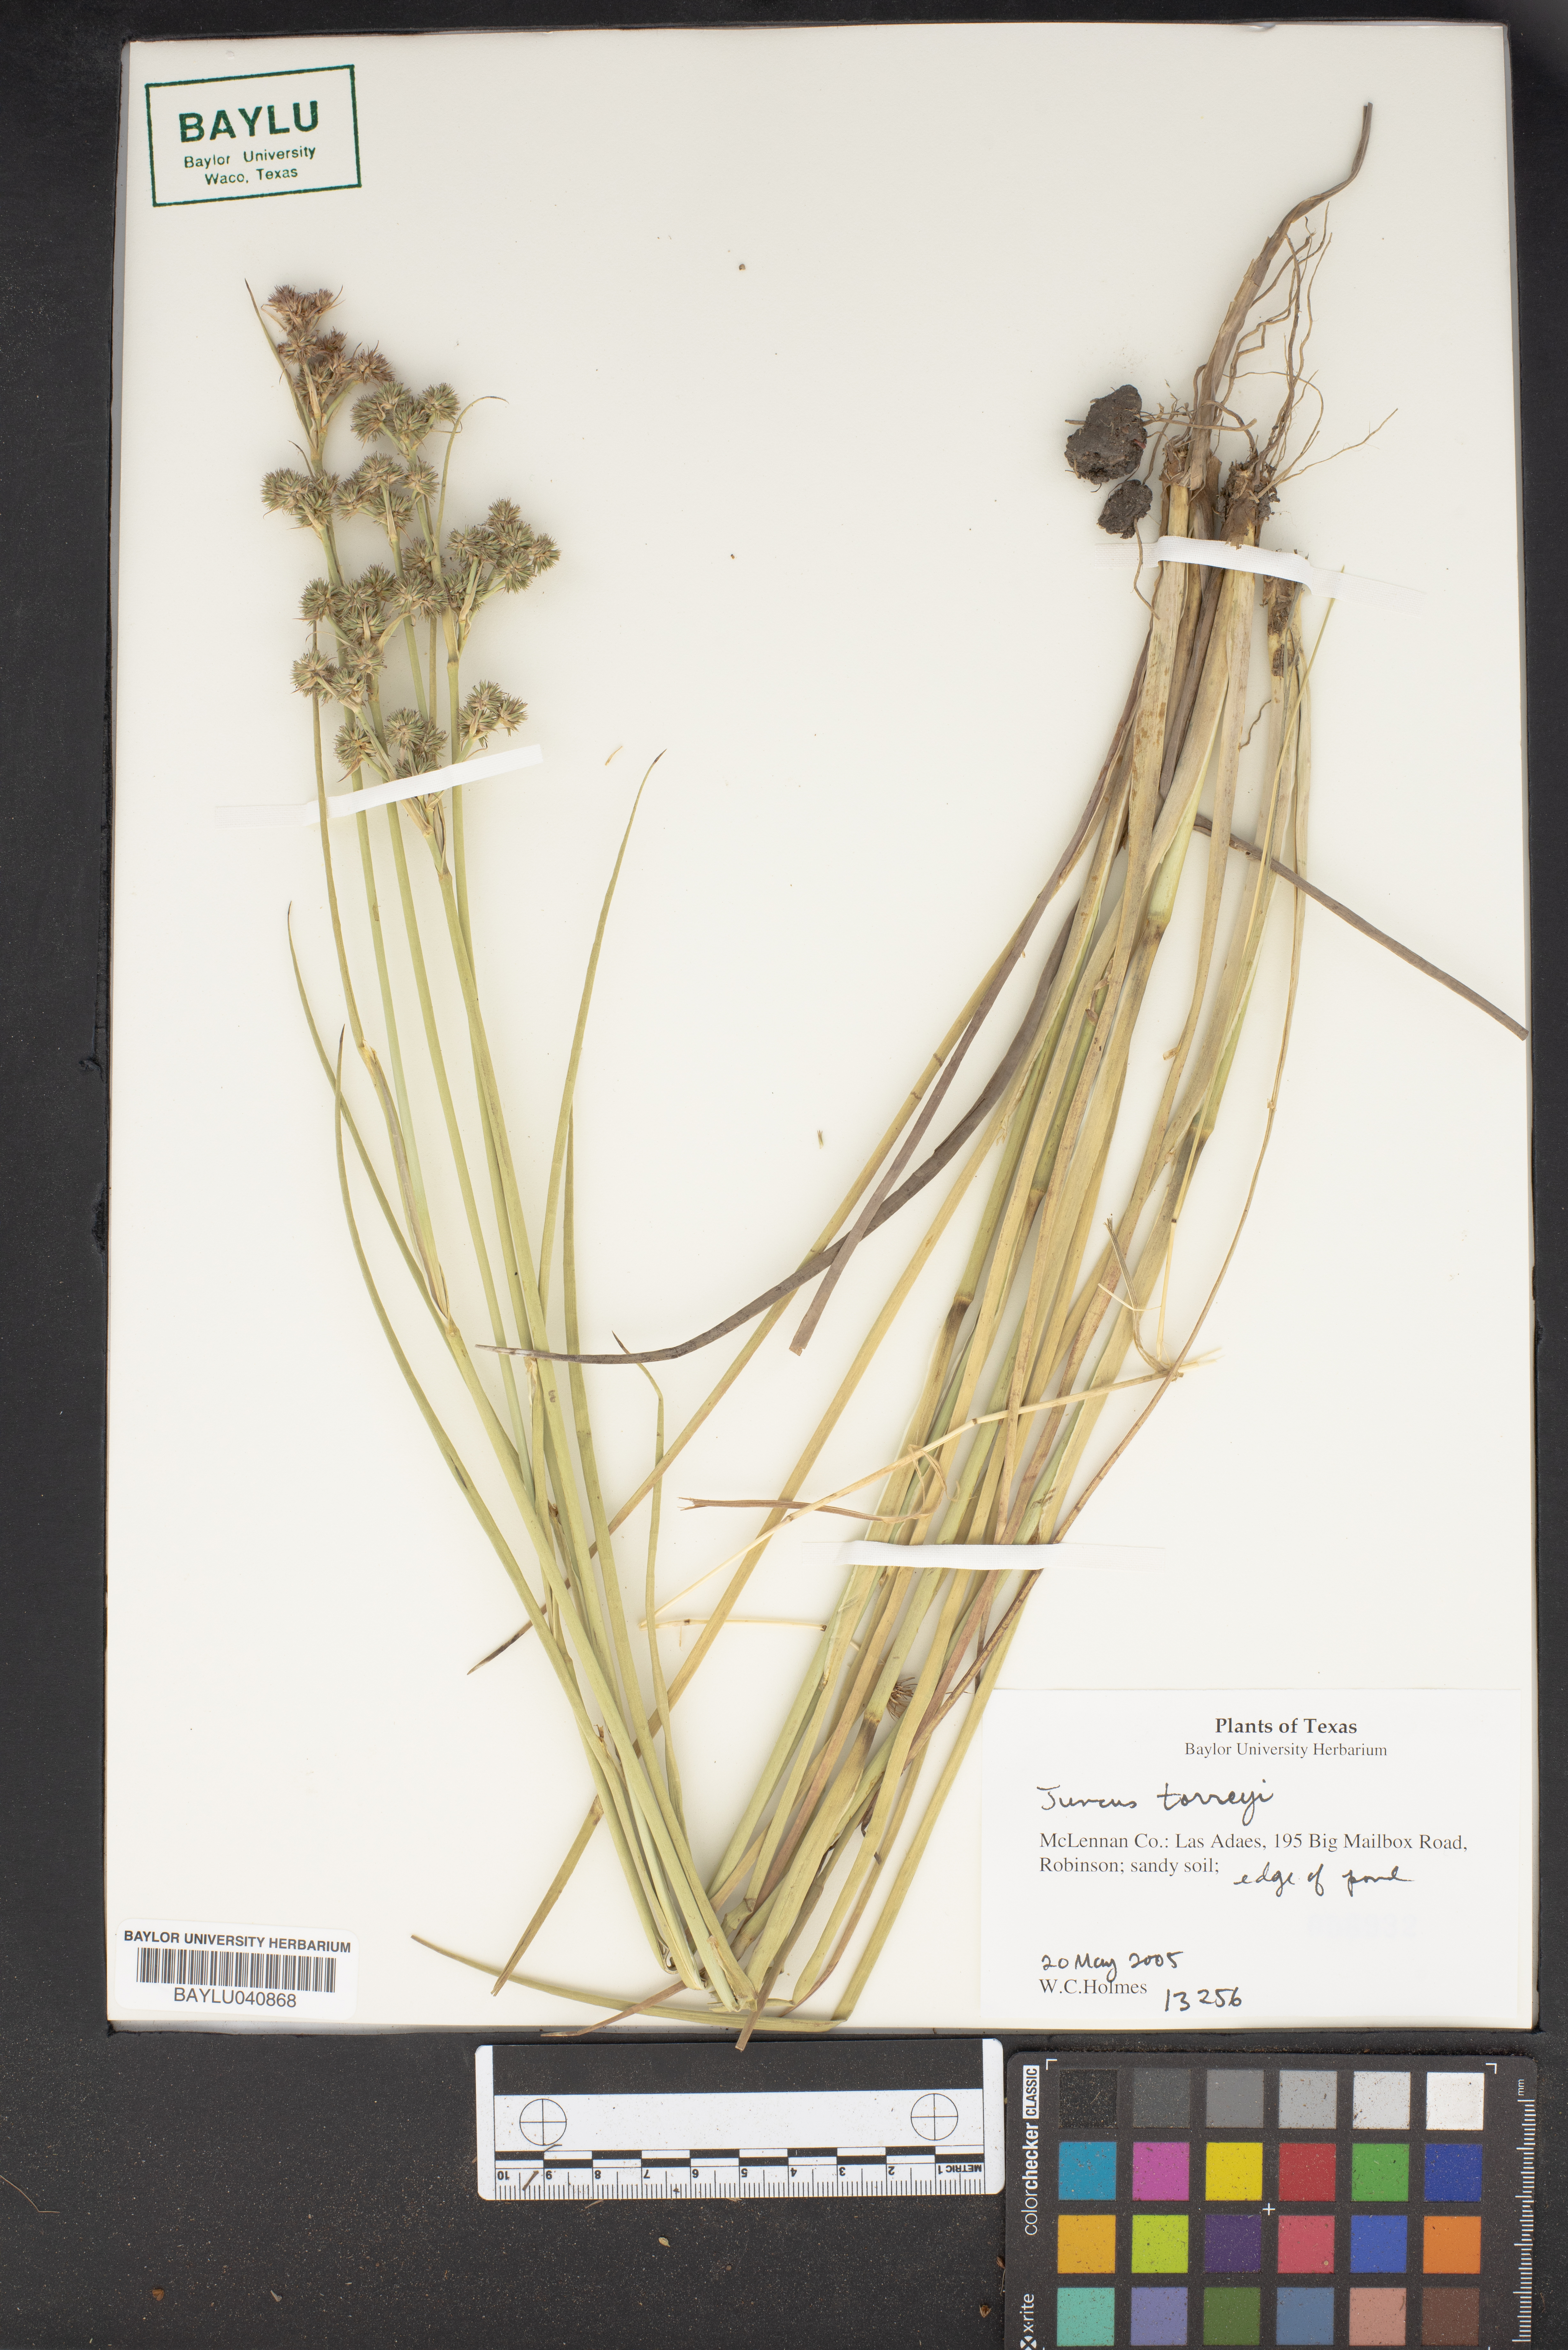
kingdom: Plantae
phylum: Tracheophyta
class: Liliopsida
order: Poales
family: Juncaceae
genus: Juncus
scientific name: Juncus torreyi
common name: Torrey's rush
